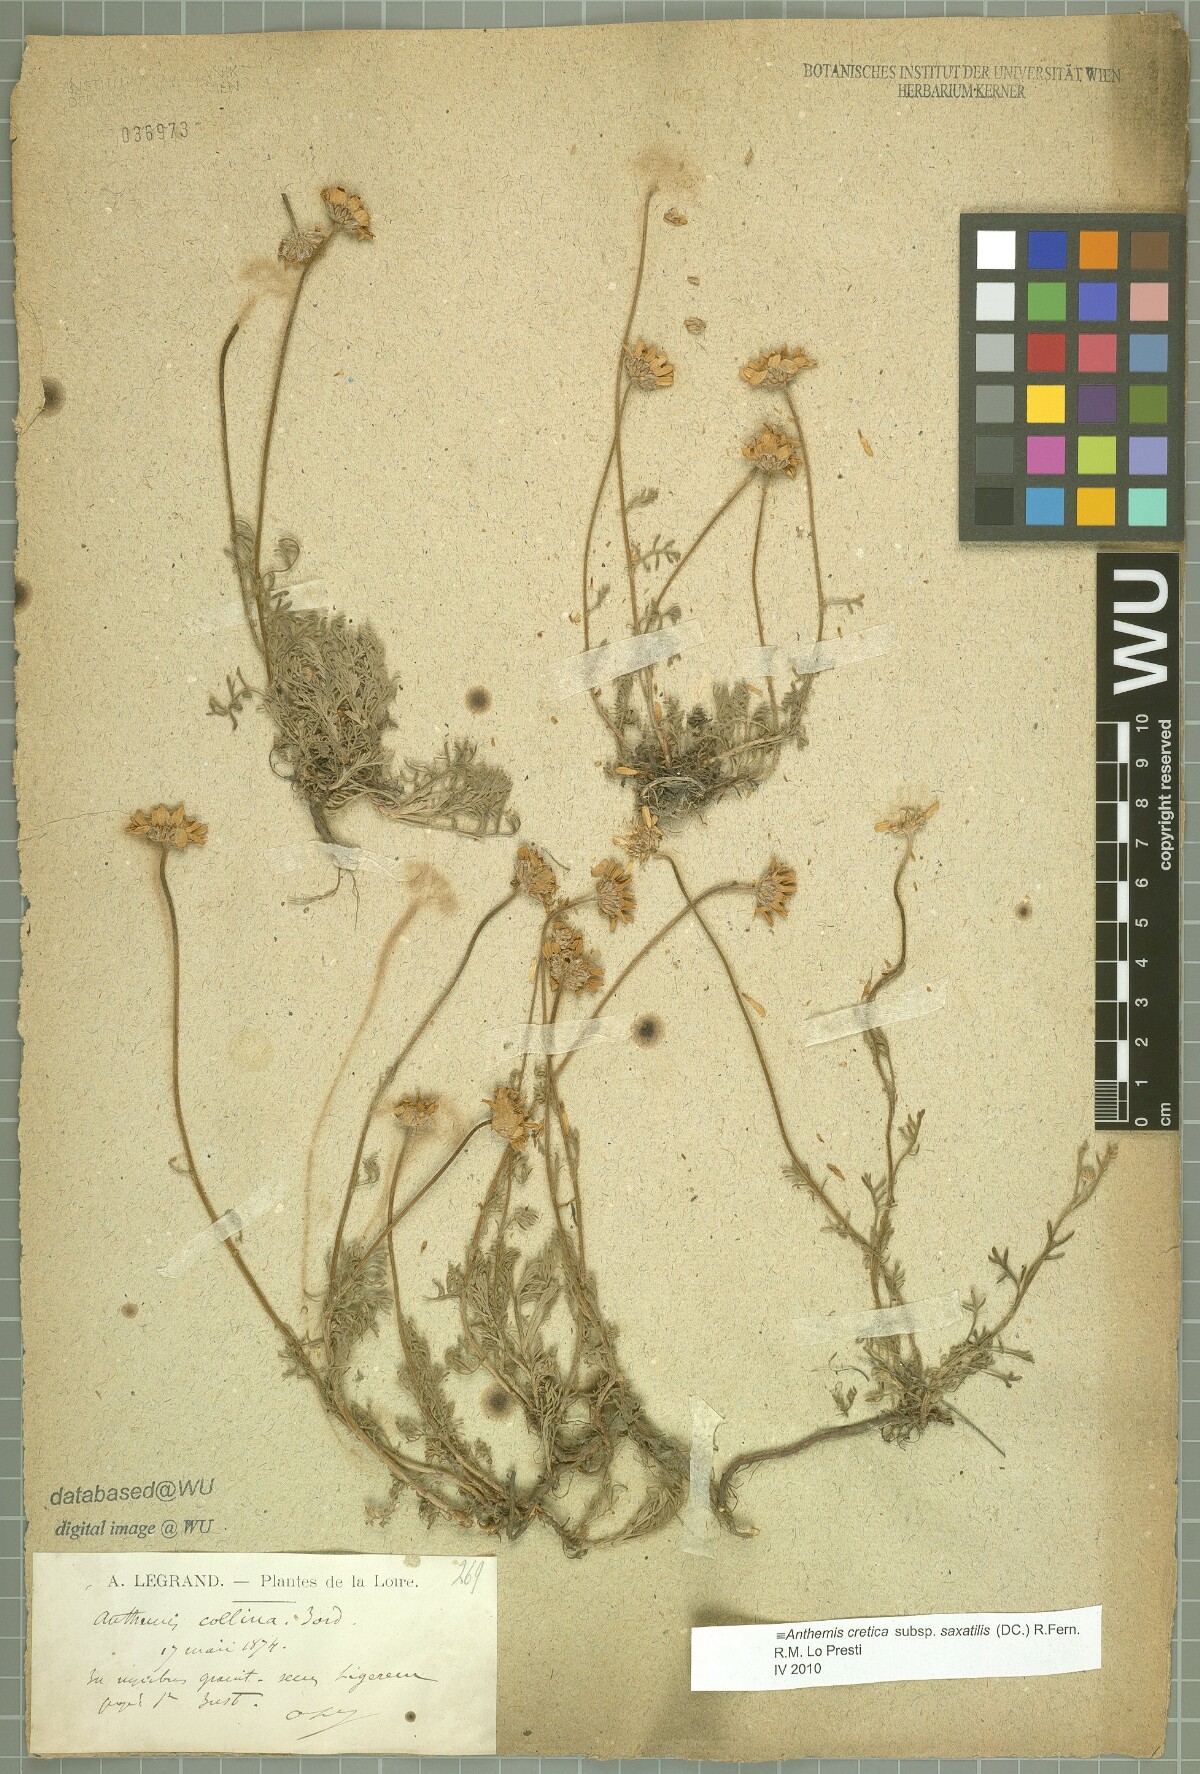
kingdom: Plantae
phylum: Tracheophyta
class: Magnoliopsida
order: Asterales
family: Asteraceae
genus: Anthemis
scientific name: Anthemis cretica
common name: Mountain dog-daisy
